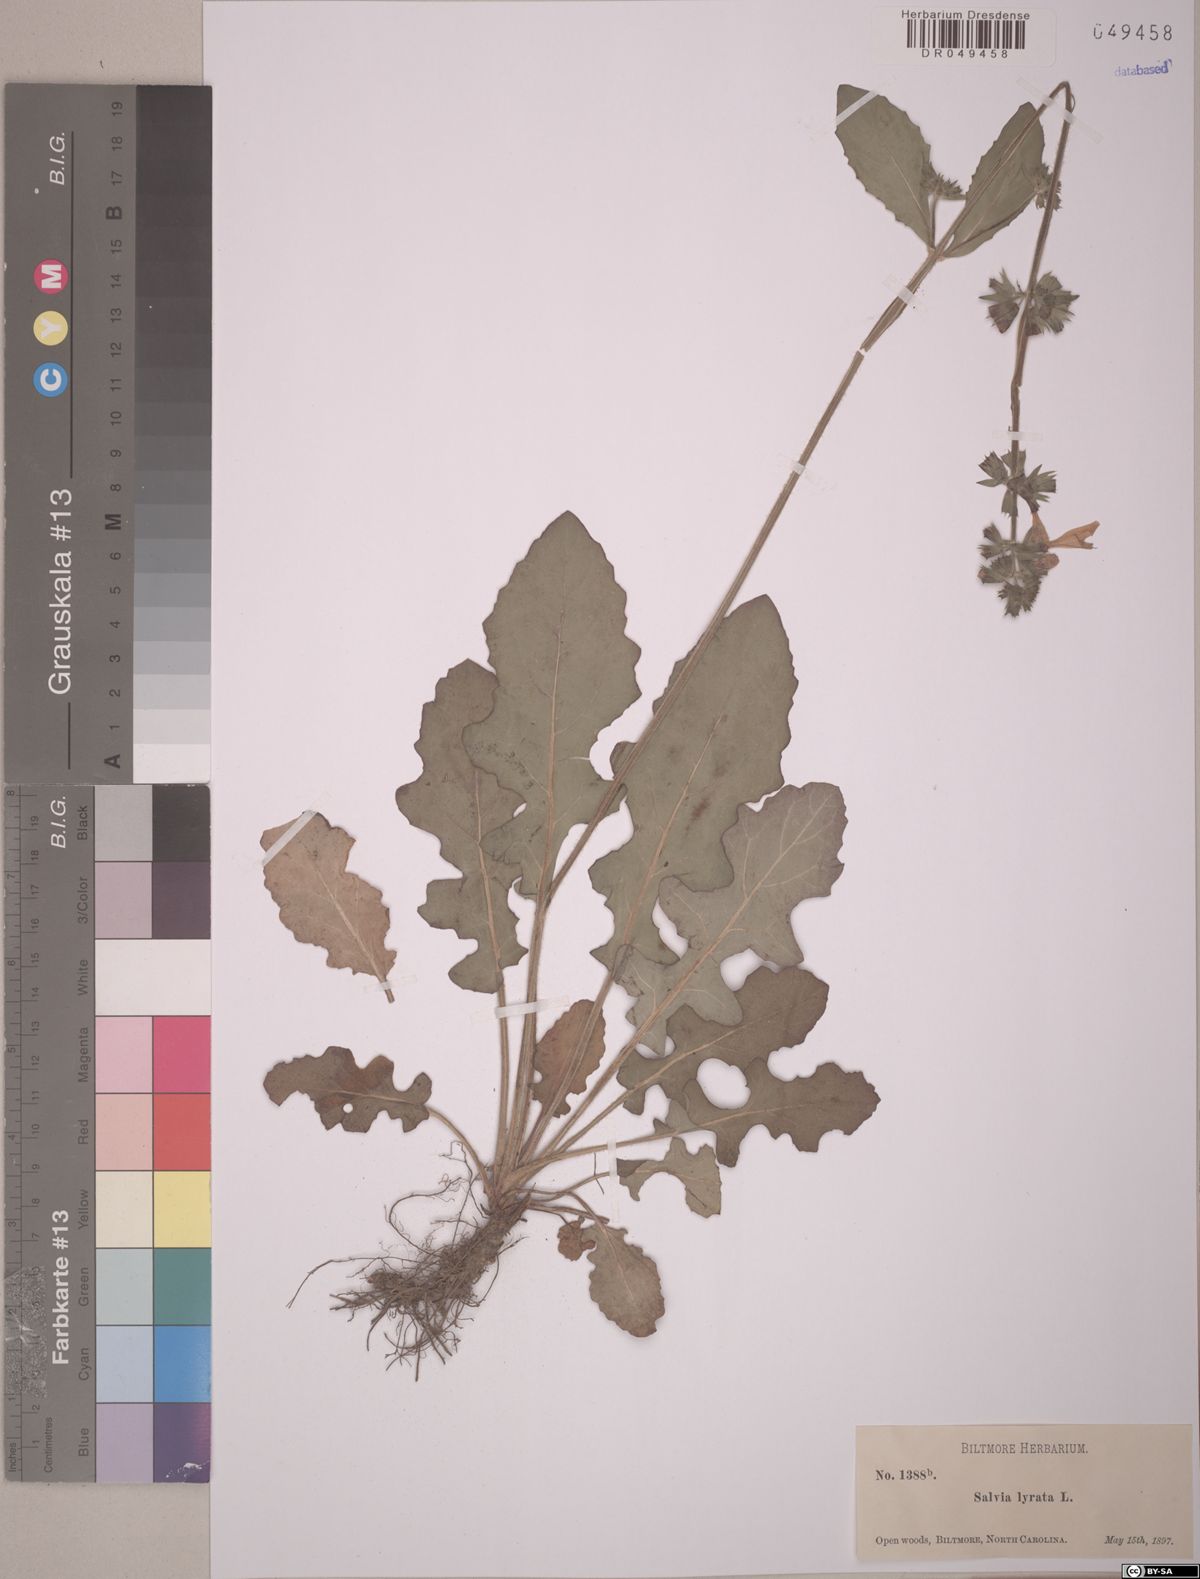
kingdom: Plantae
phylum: Tracheophyta
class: Magnoliopsida
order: Lamiales
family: Lamiaceae
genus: Salvia
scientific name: Salvia lyrata
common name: Cancerweed
